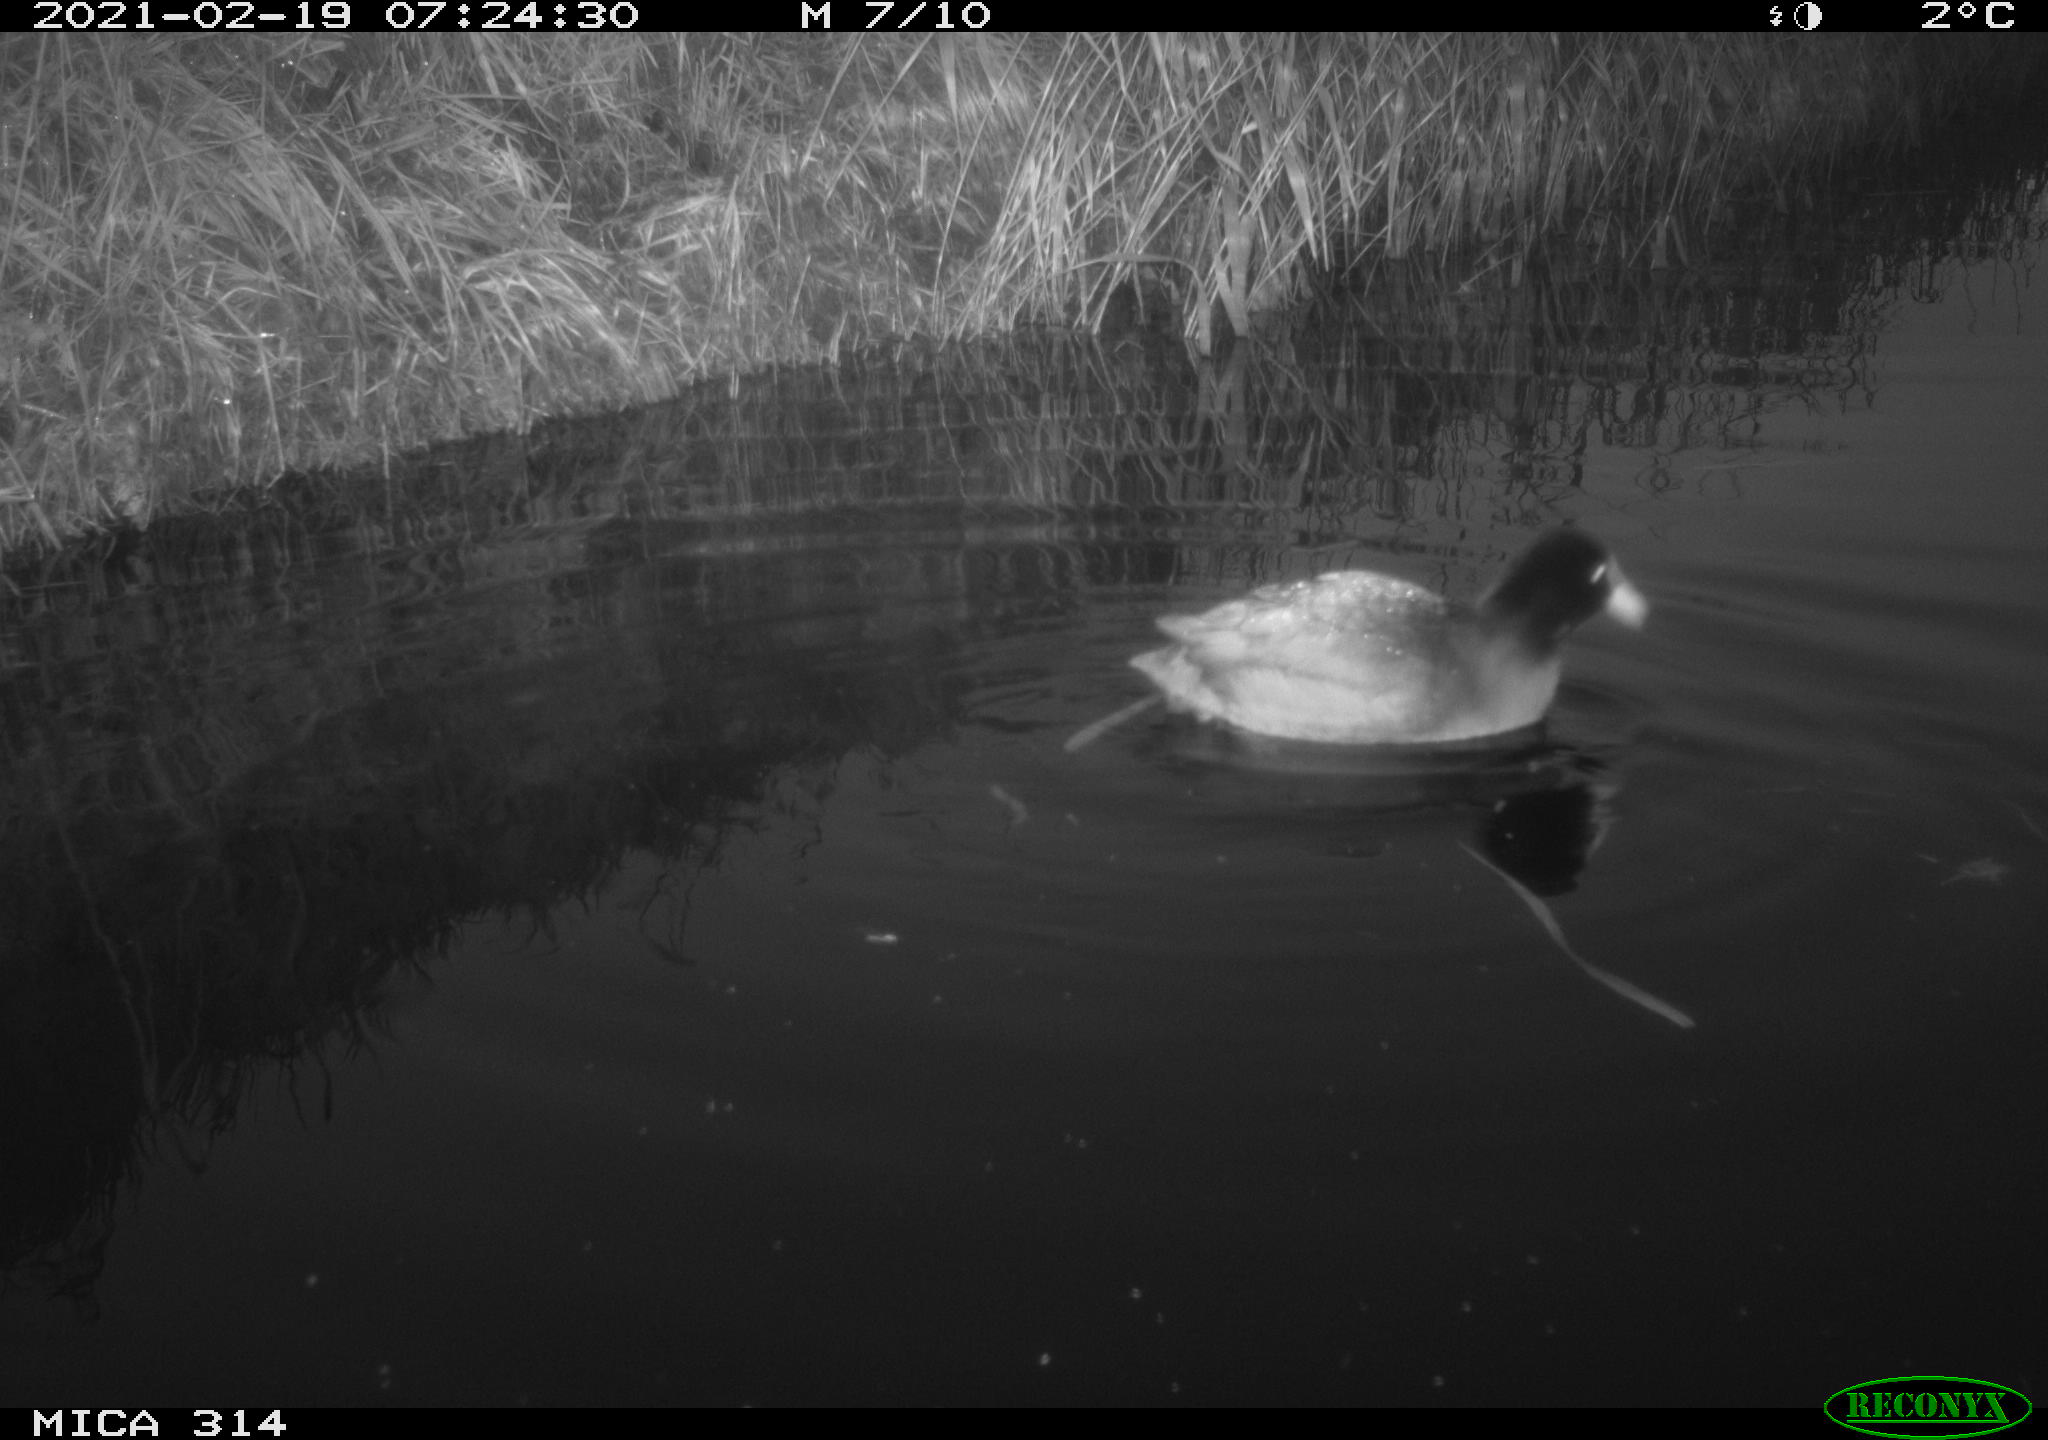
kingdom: Animalia
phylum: Chordata
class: Aves
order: Gruiformes
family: Rallidae
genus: Fulica
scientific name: Fulica atra
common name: Eurasian coot
